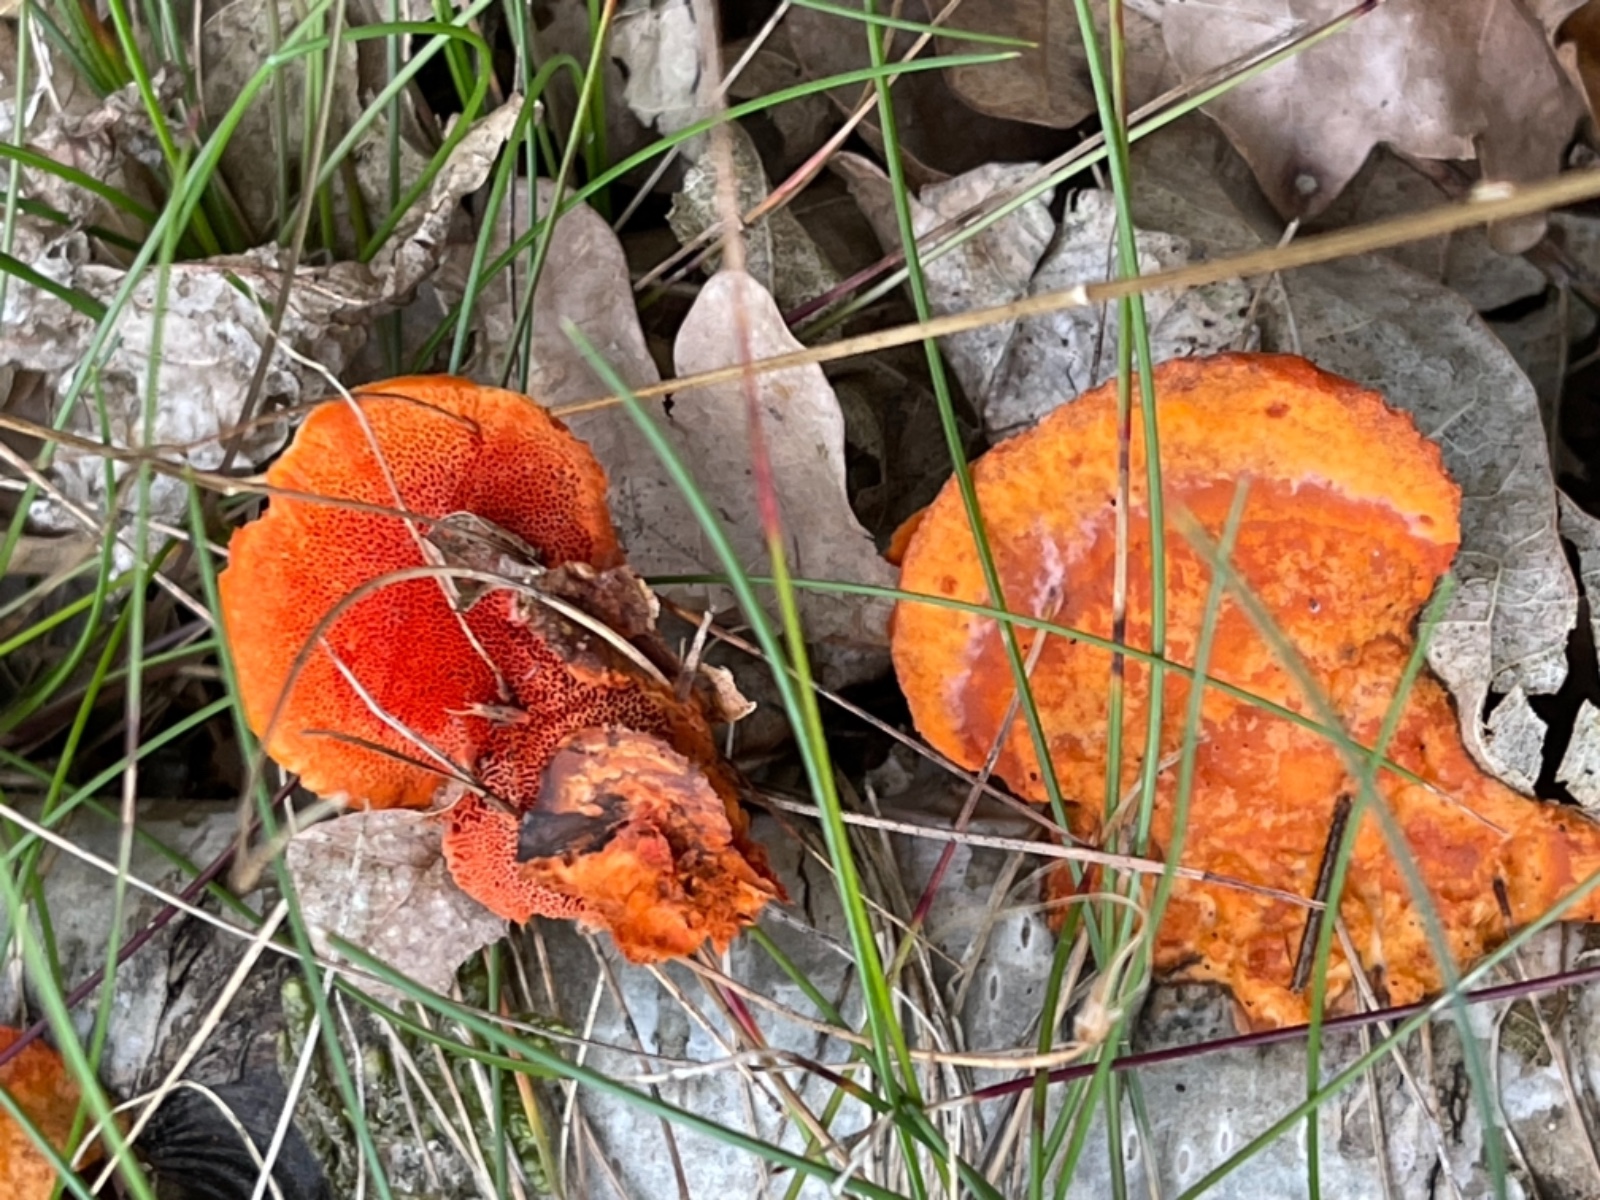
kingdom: Fungi
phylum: Basidiomycota
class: Agaricomycetes
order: Polyporales
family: Polyporaceae
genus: Trametes
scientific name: Trametes cinnabarina
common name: cinnoberporesvamp
